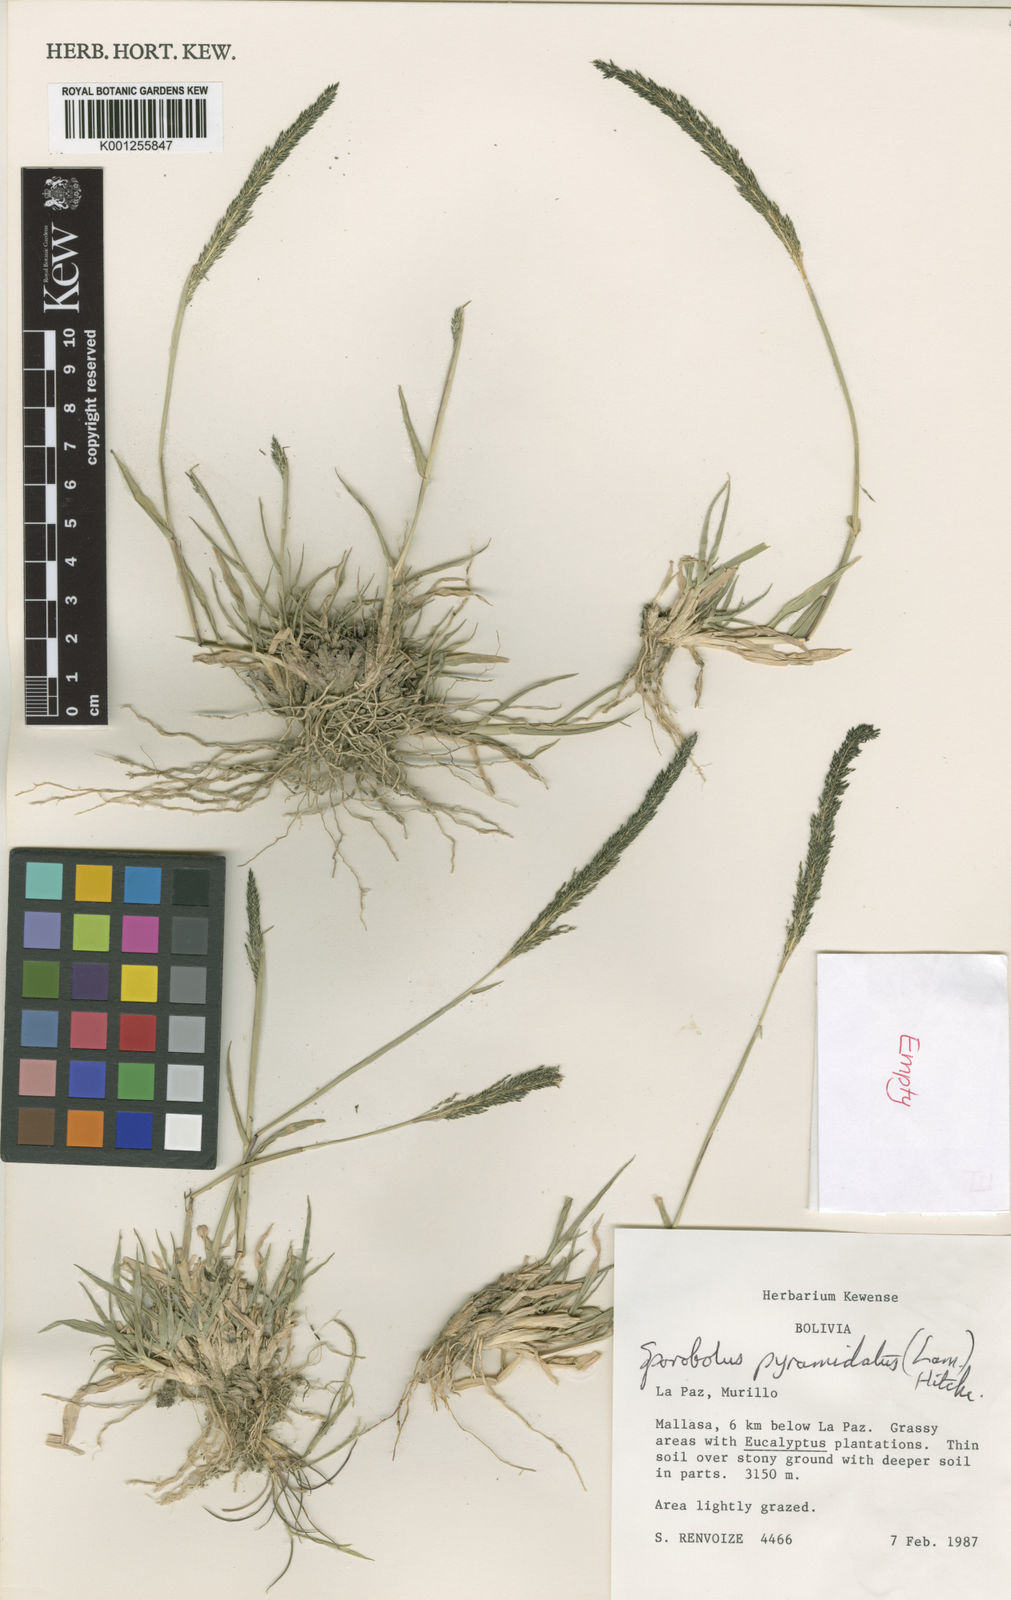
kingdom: Plantae
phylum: Tracheophyta
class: Liliopsida
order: Poales
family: Poaceae
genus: Sporobolus
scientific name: Sporobolus pyramidatus
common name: Whorled dropseed
